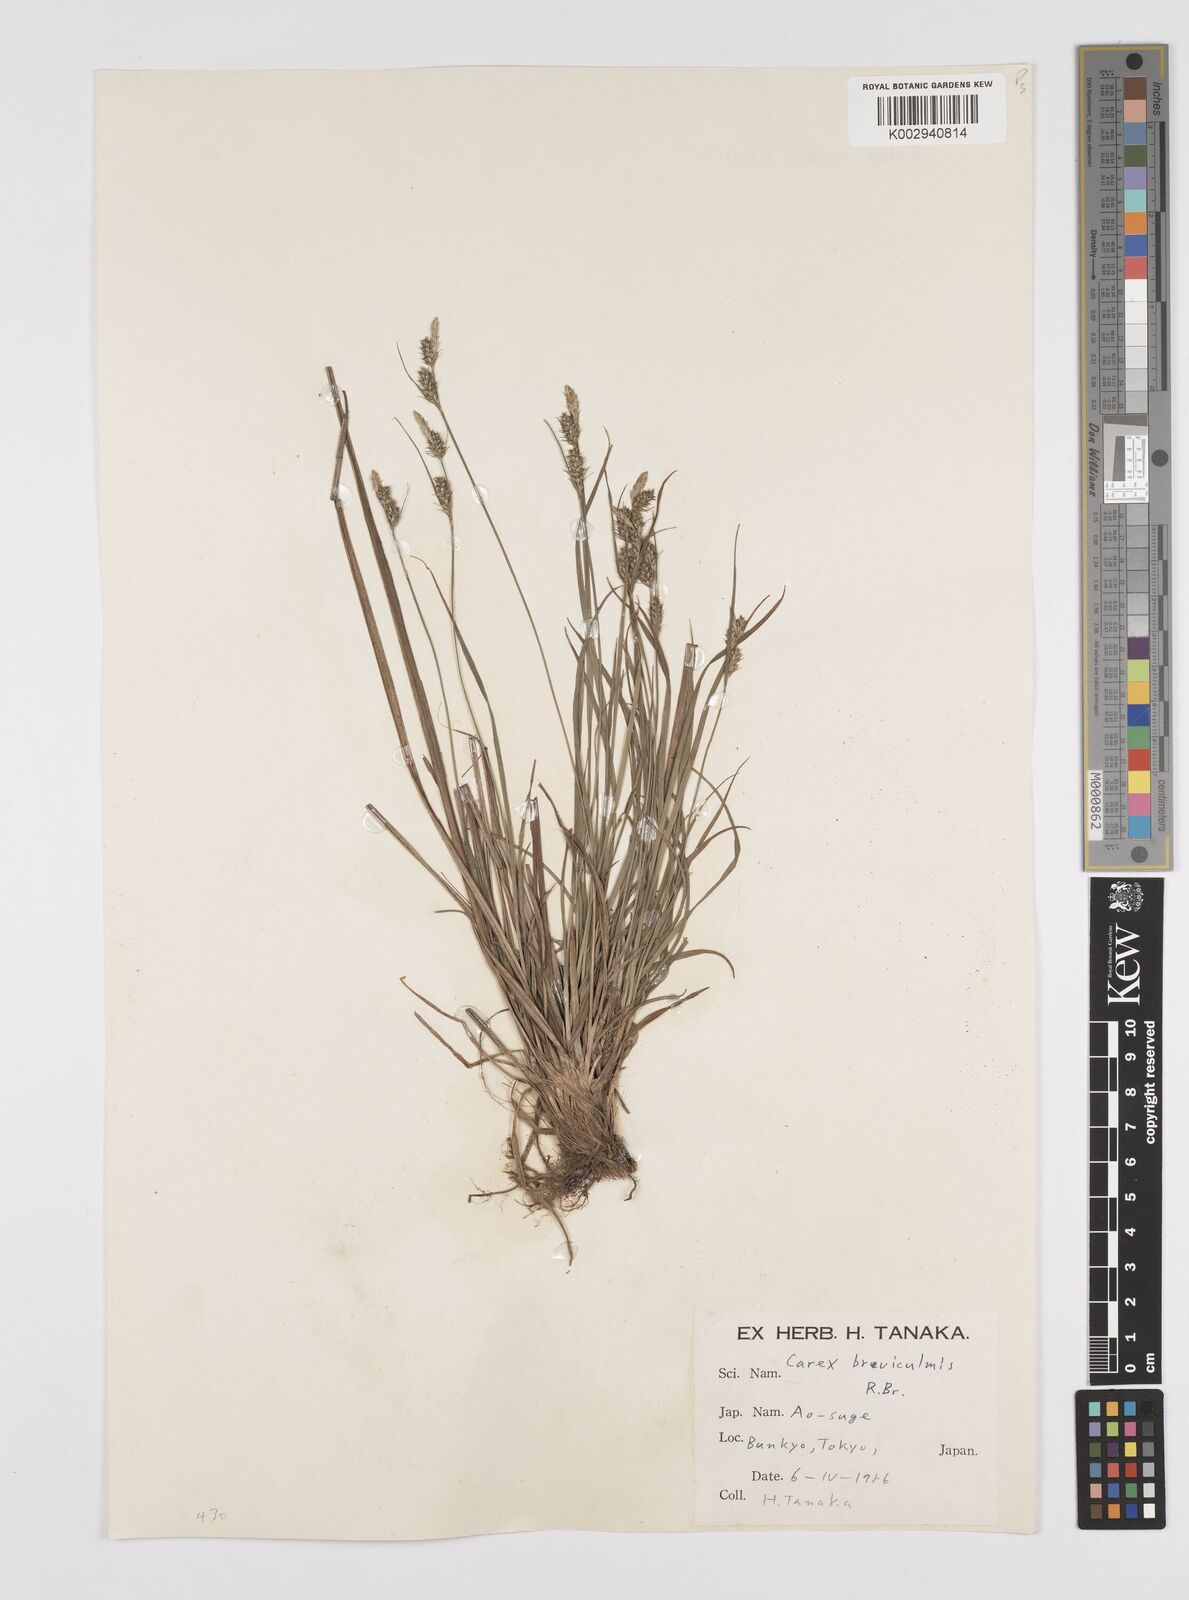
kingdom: Plantae
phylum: Tracheophyta
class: Liliopsida
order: Poales
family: Cyperaceae
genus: Carex
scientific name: Carex breviculmis
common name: Asian shortstem sedge
